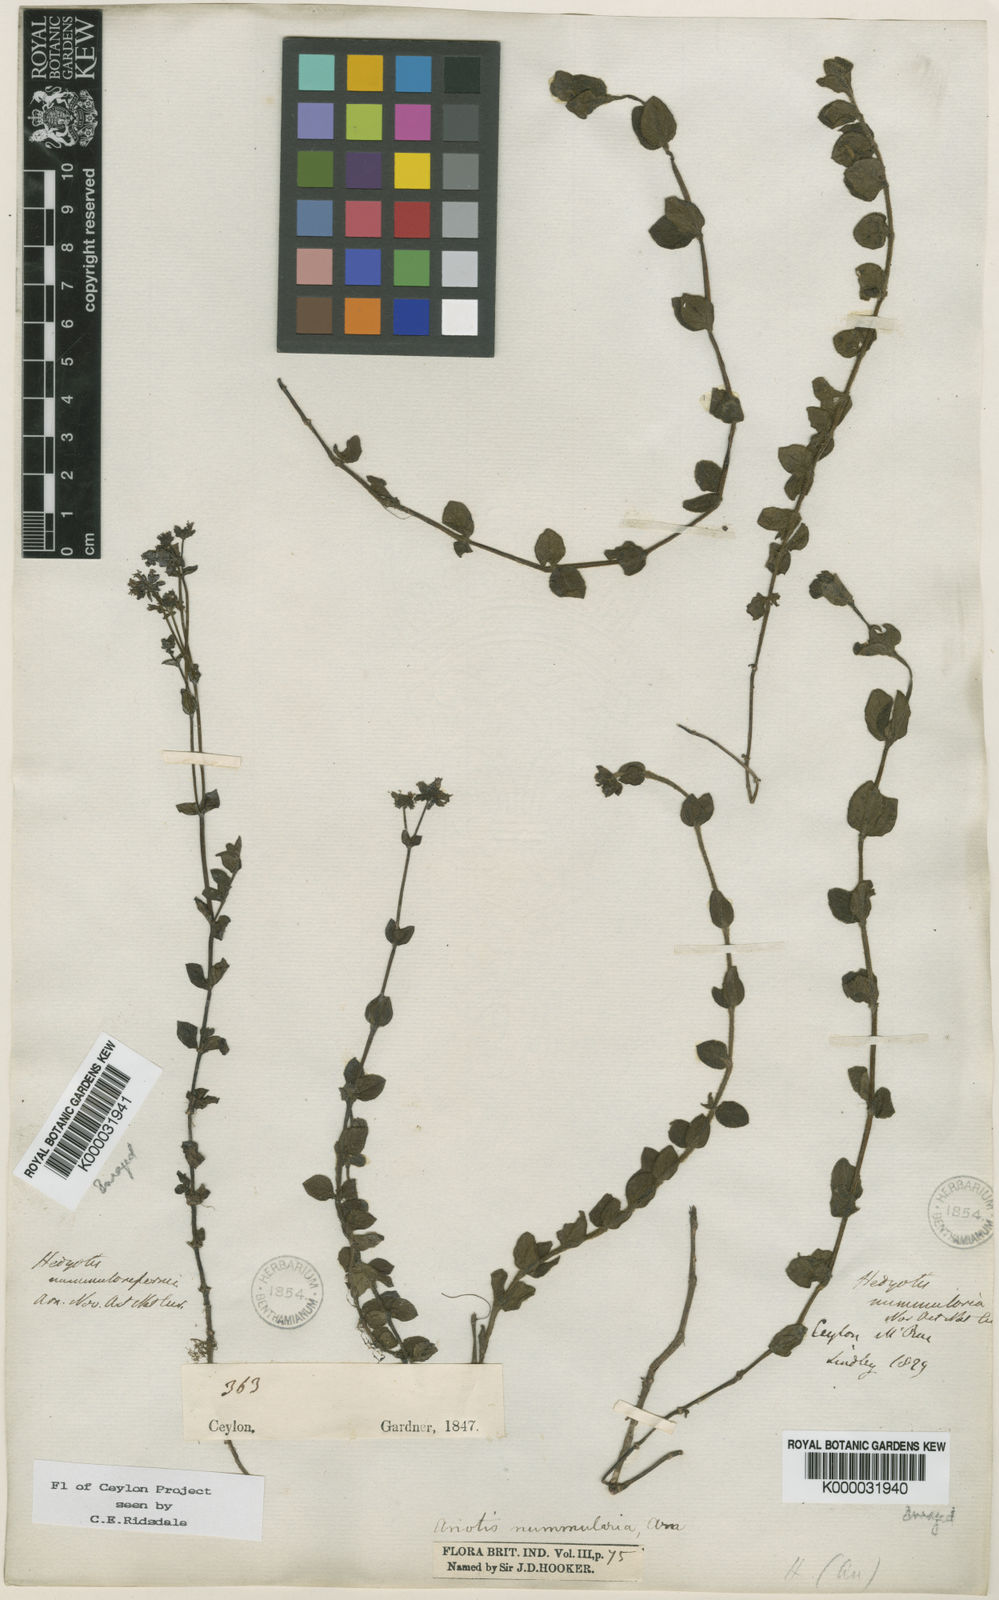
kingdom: Plantae
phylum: Tracheophyta
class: Magnoliopsida
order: Gentianales
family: Rubiaceae
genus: Neanotis
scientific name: Neanotis nummularia
